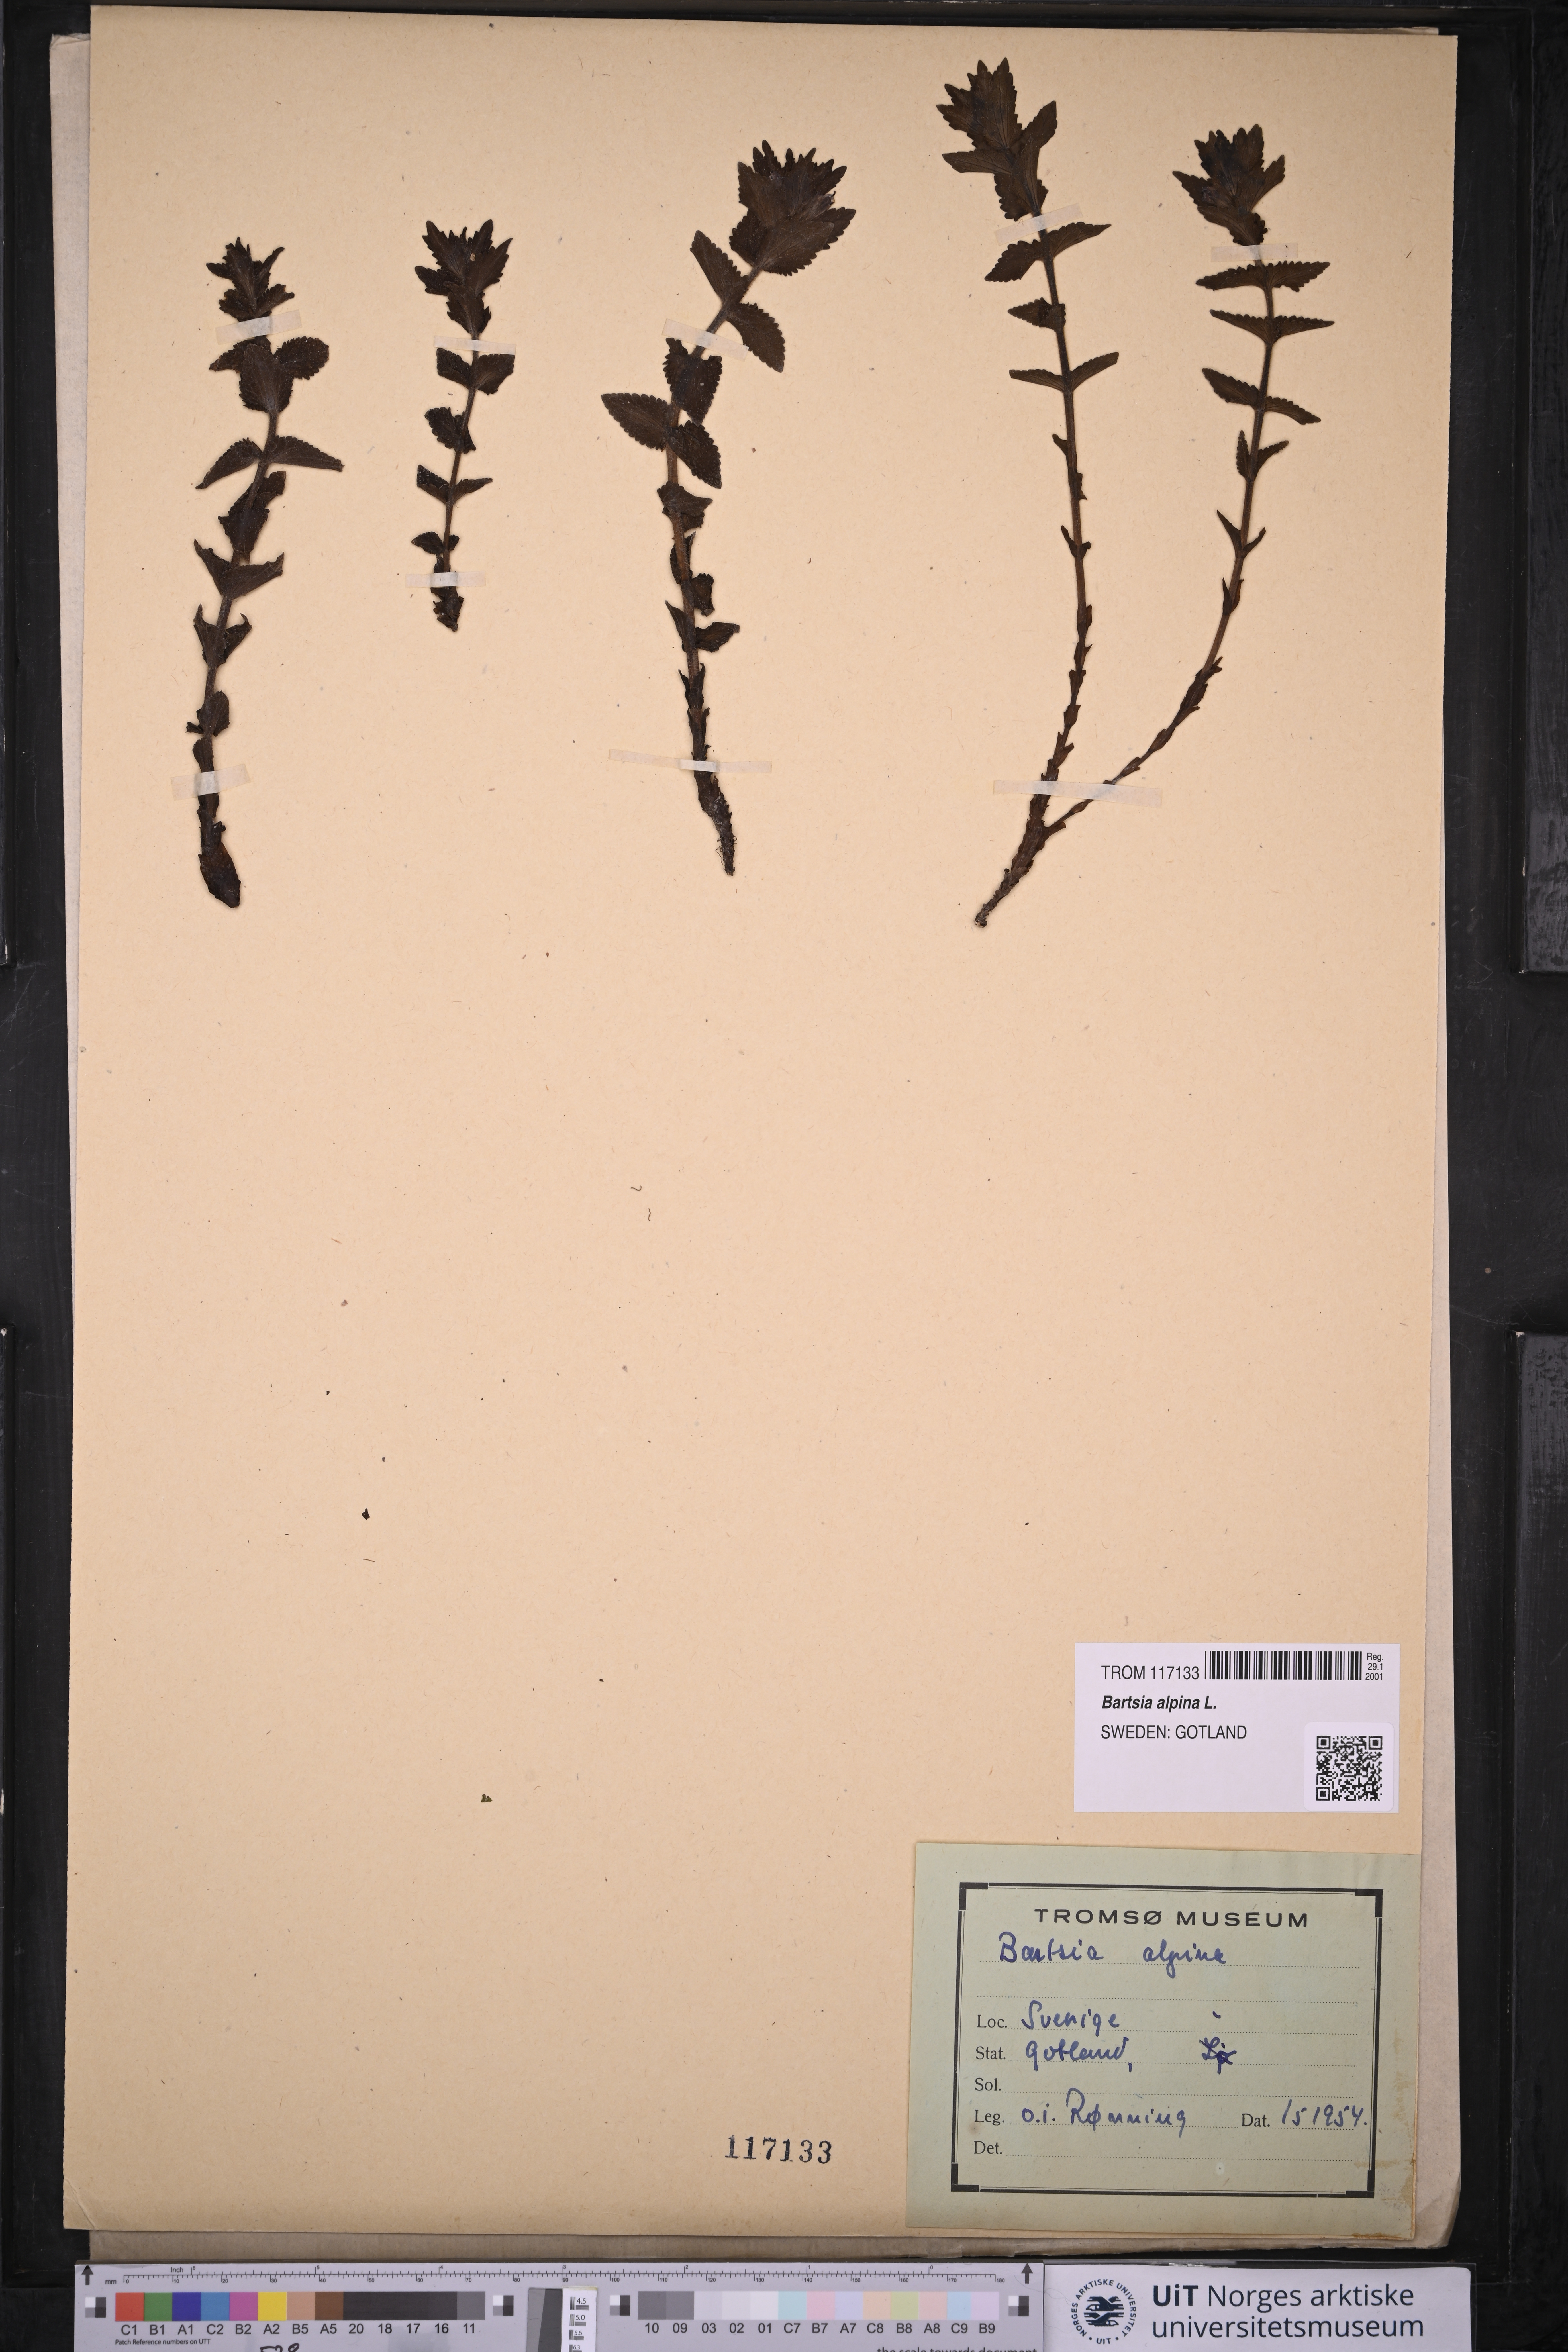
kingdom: Plantae
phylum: Tracheophyta
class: Magnoliopsida
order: Lamiales
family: Orobanchaceae
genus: Bartsia
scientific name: Bartsia alpina
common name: Alpine bartsia
